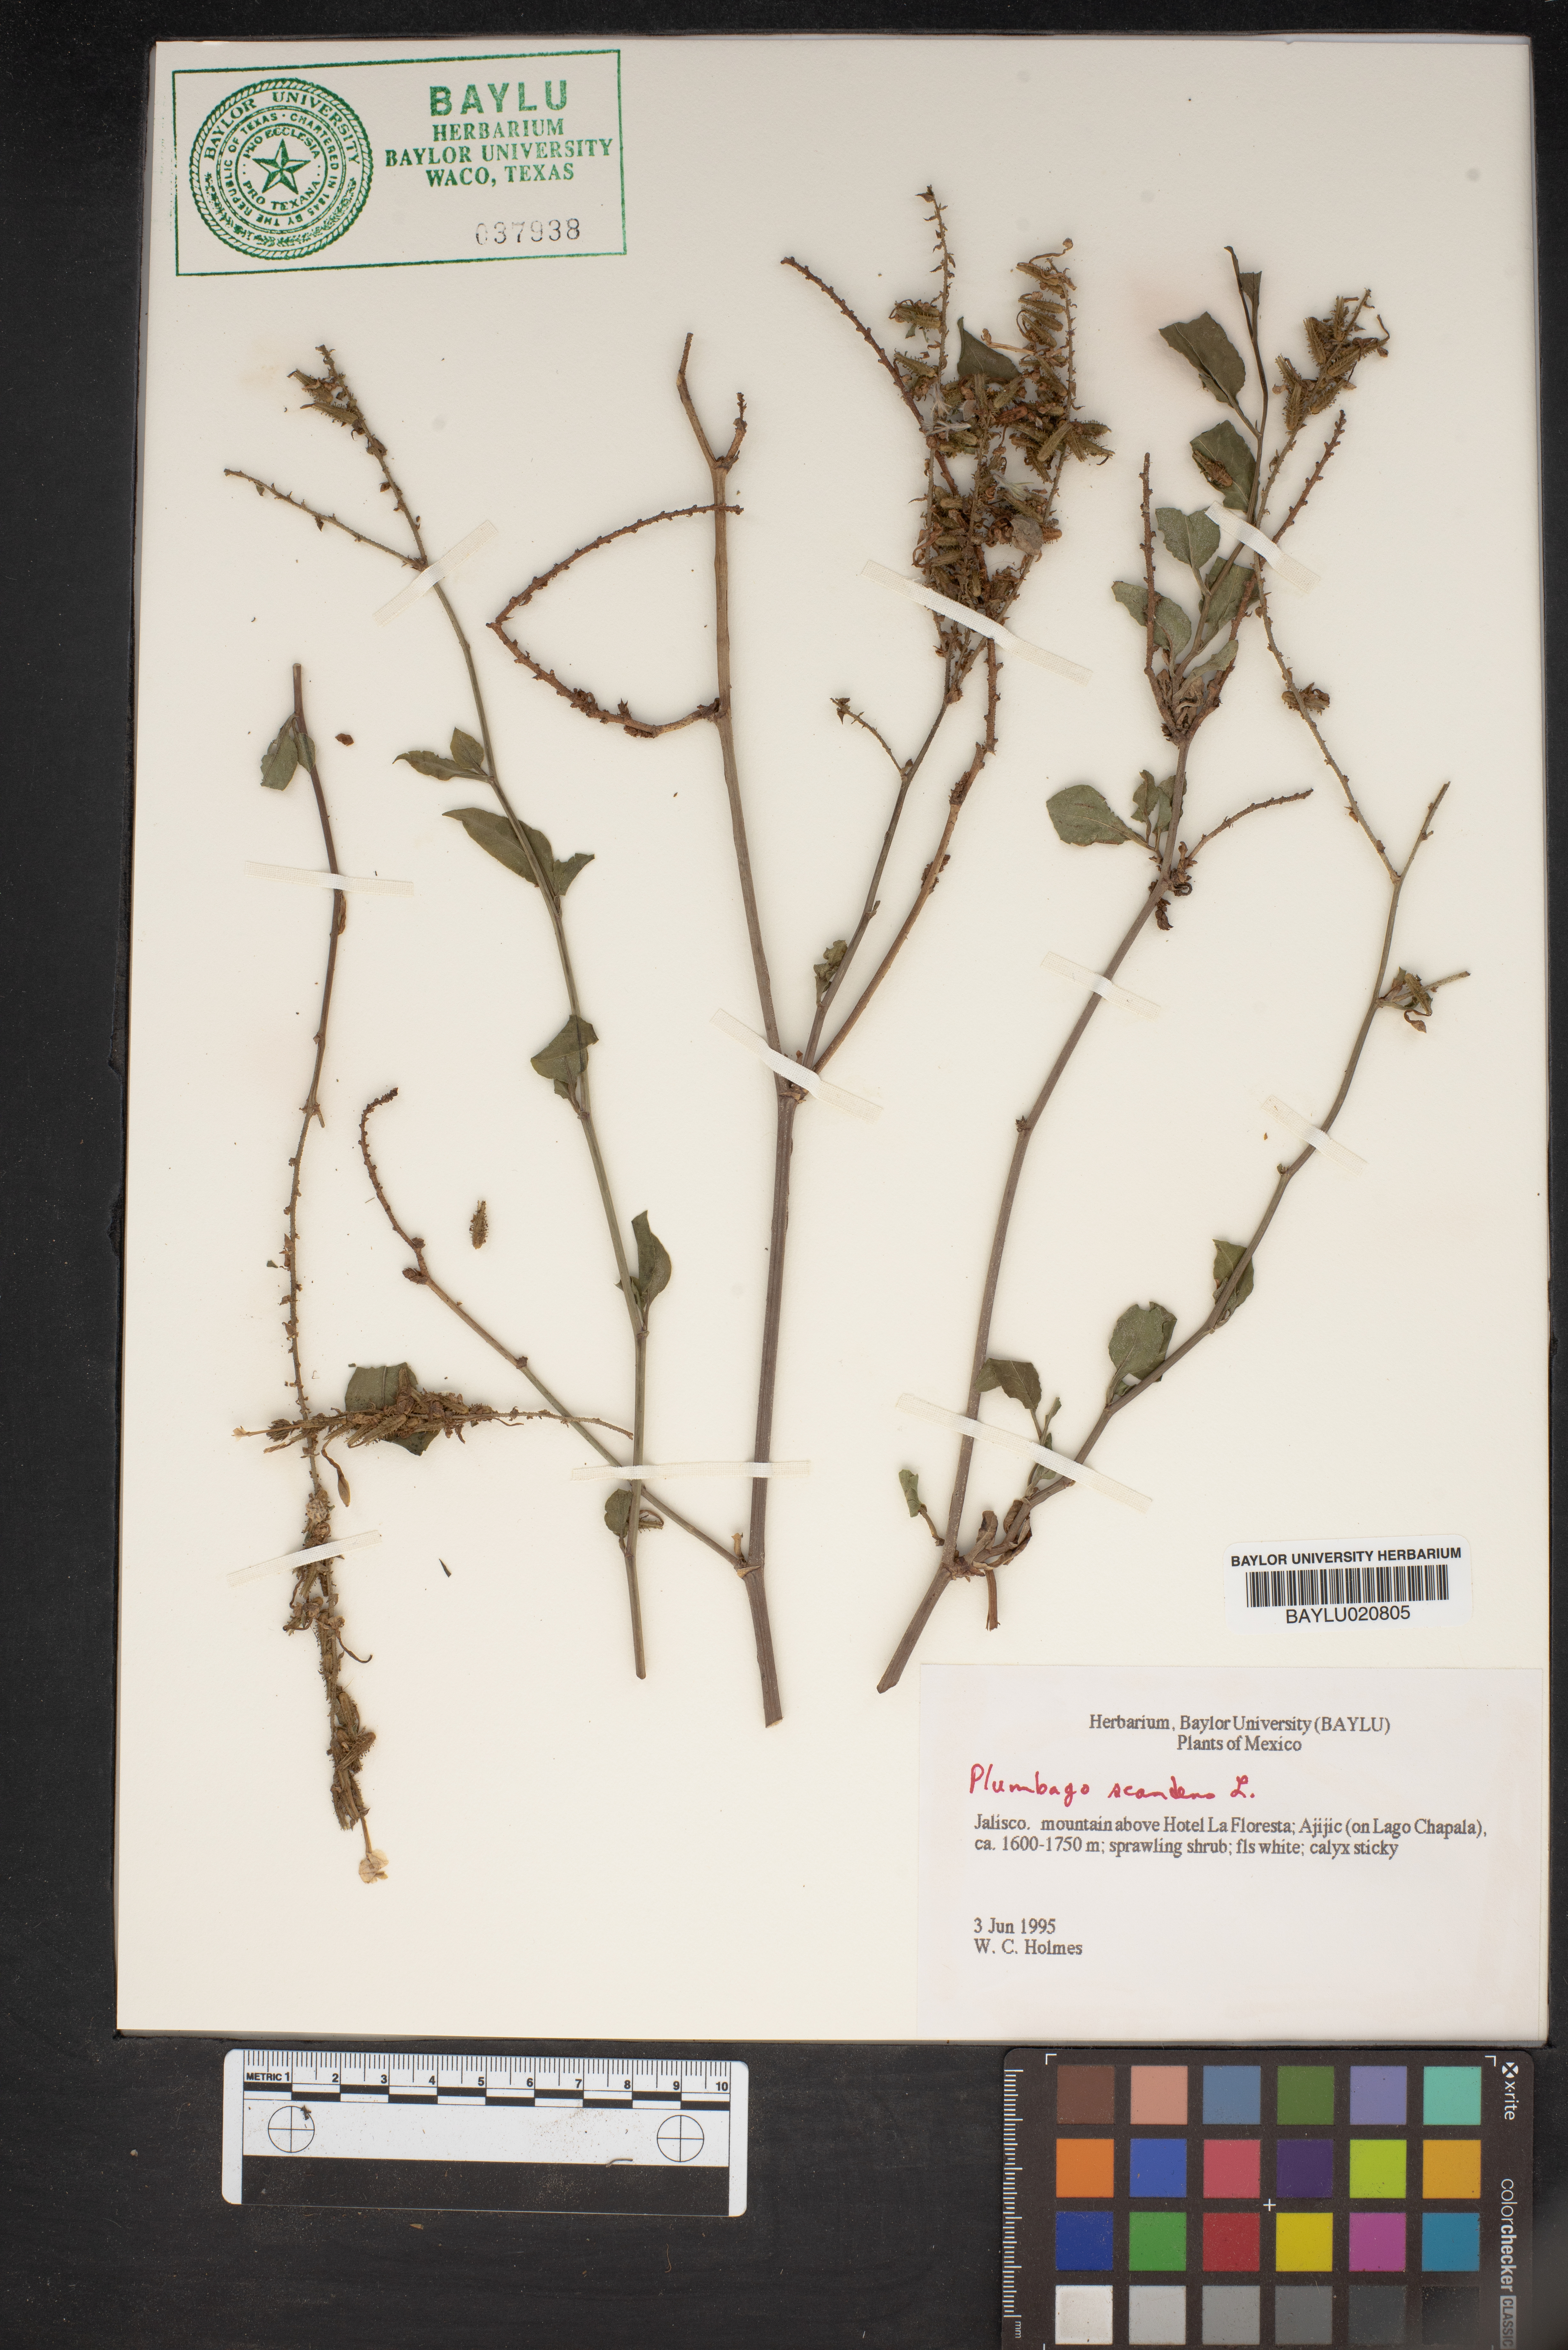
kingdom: Plantae
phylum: Tracheophyta
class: Magnoliopsida
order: Caryophyllales
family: Plumbaginaceae
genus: Plumbago
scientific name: Plumbago zeylanica
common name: Doctorbush
